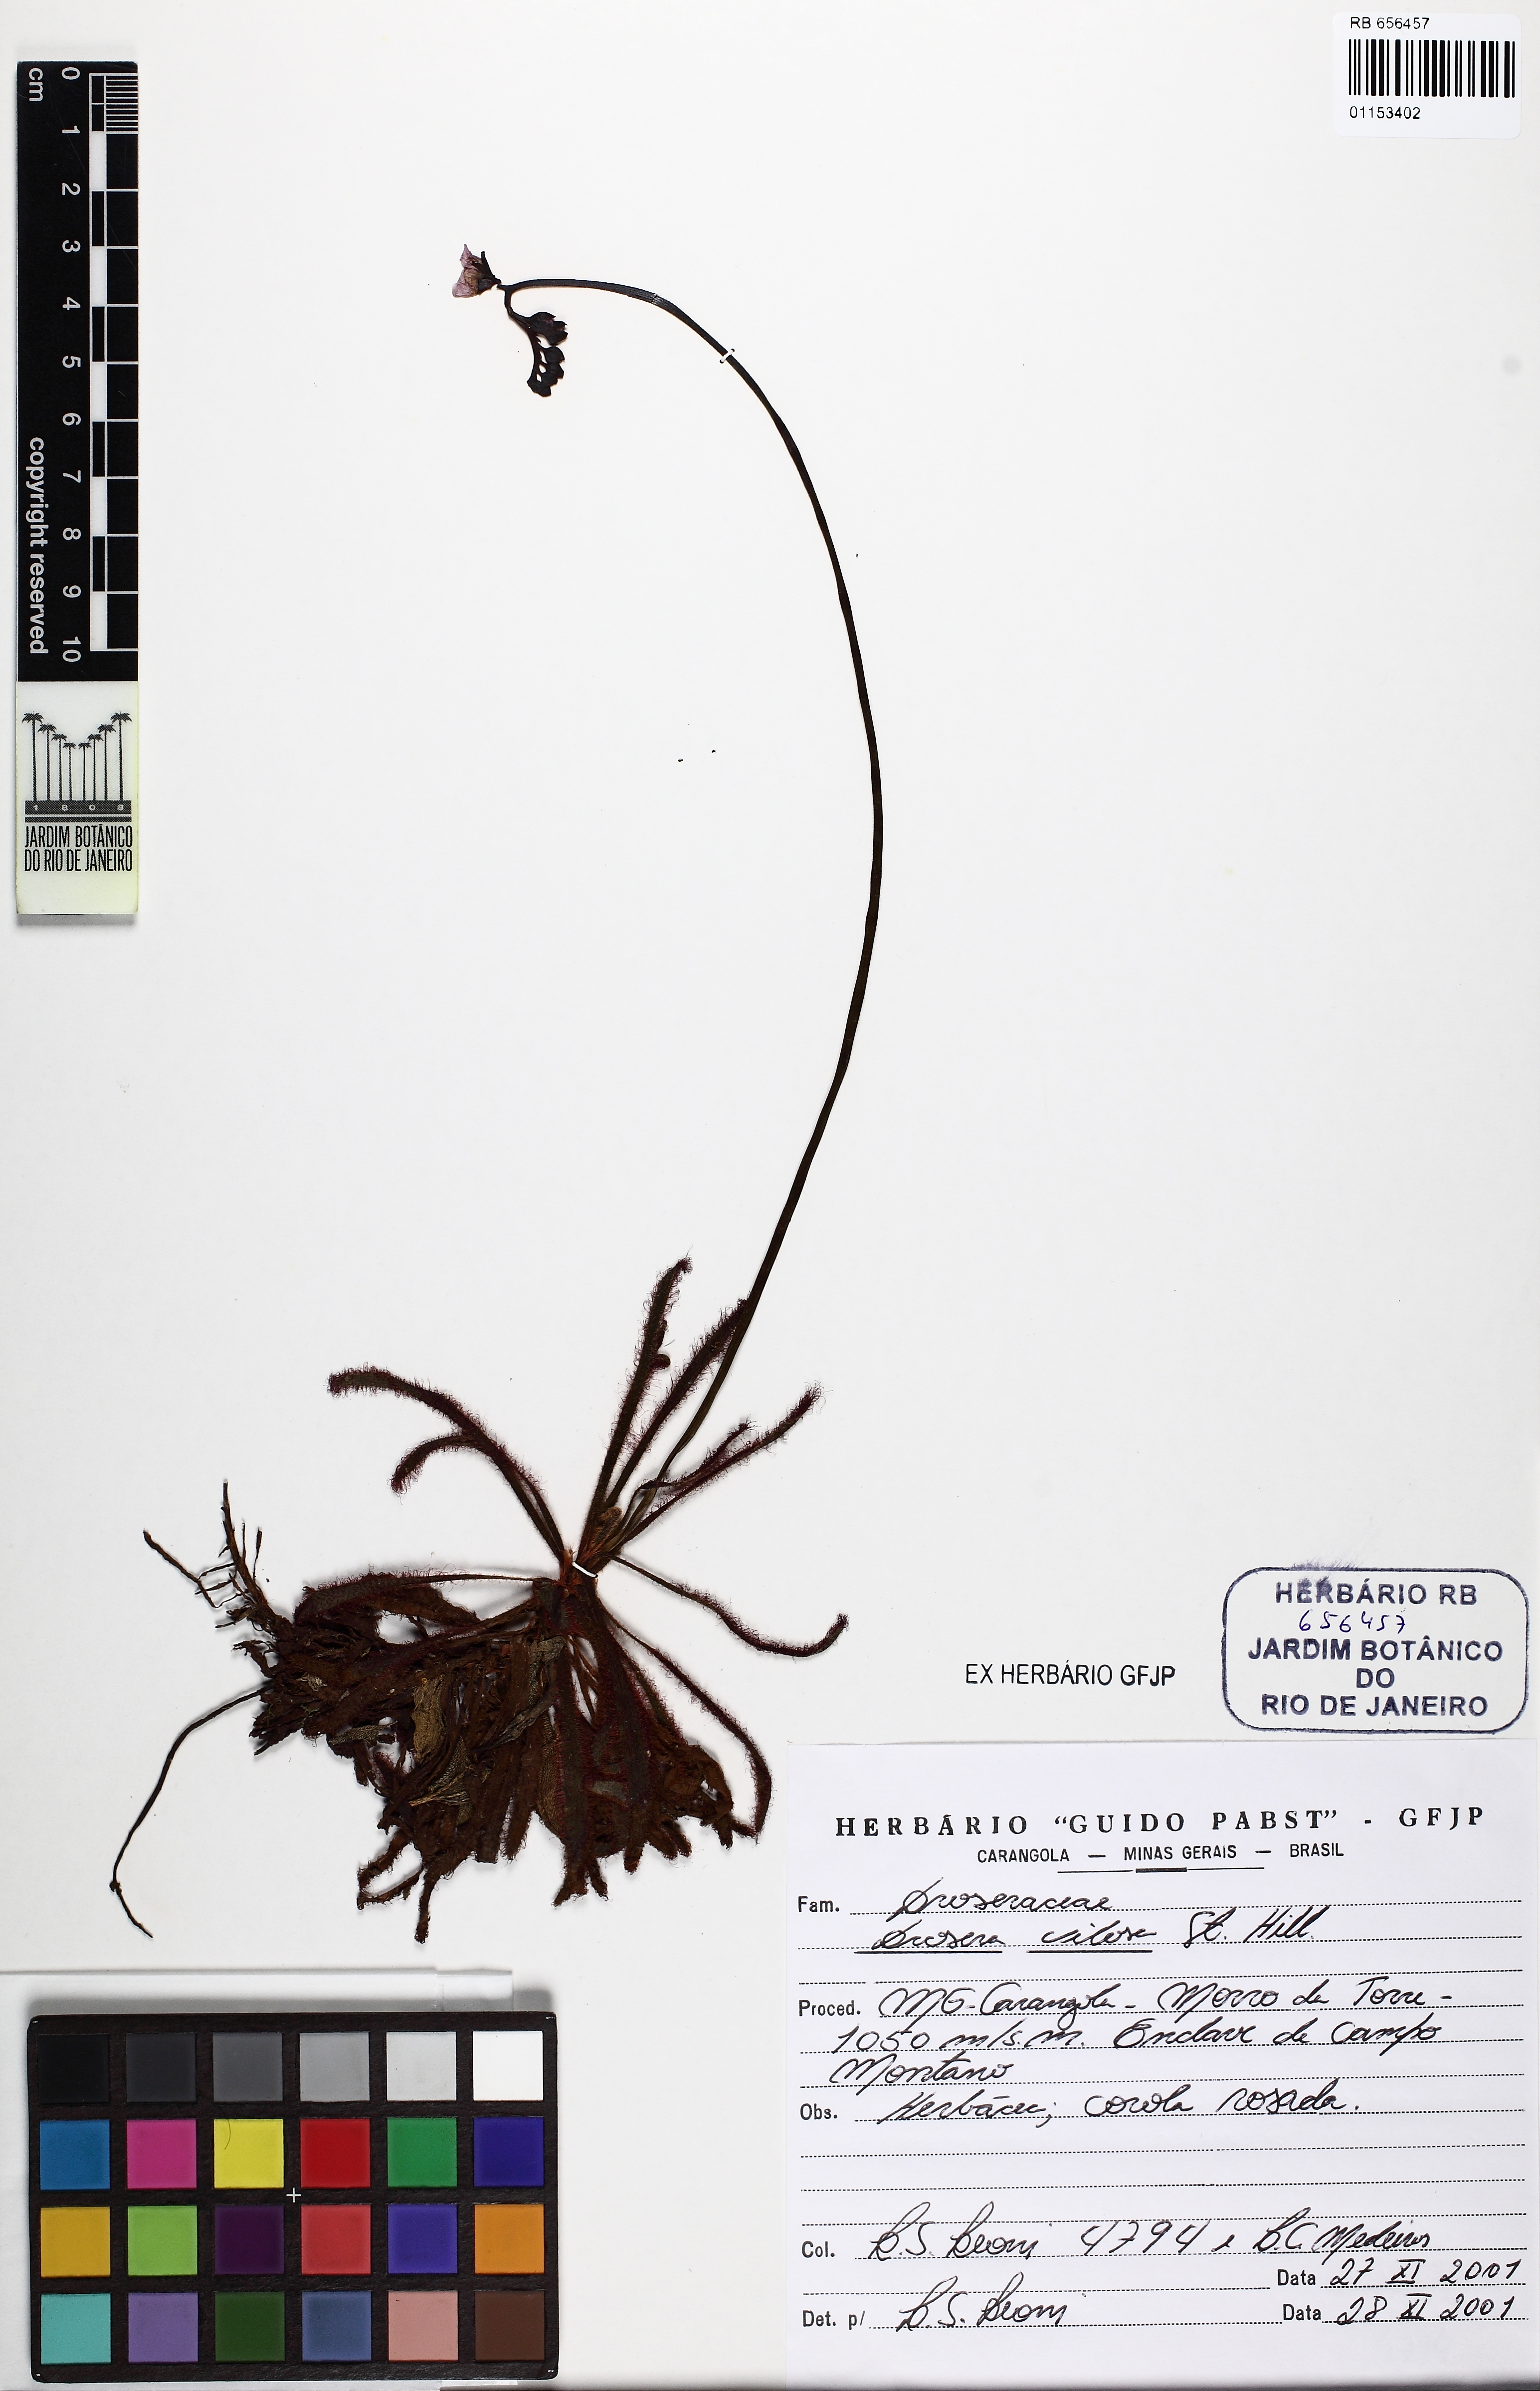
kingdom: Plantae
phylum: Tracheophyta
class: Magnoliopsida
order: Caryophyllales
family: Droseraceae
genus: Drosera
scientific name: Drosera villosa
